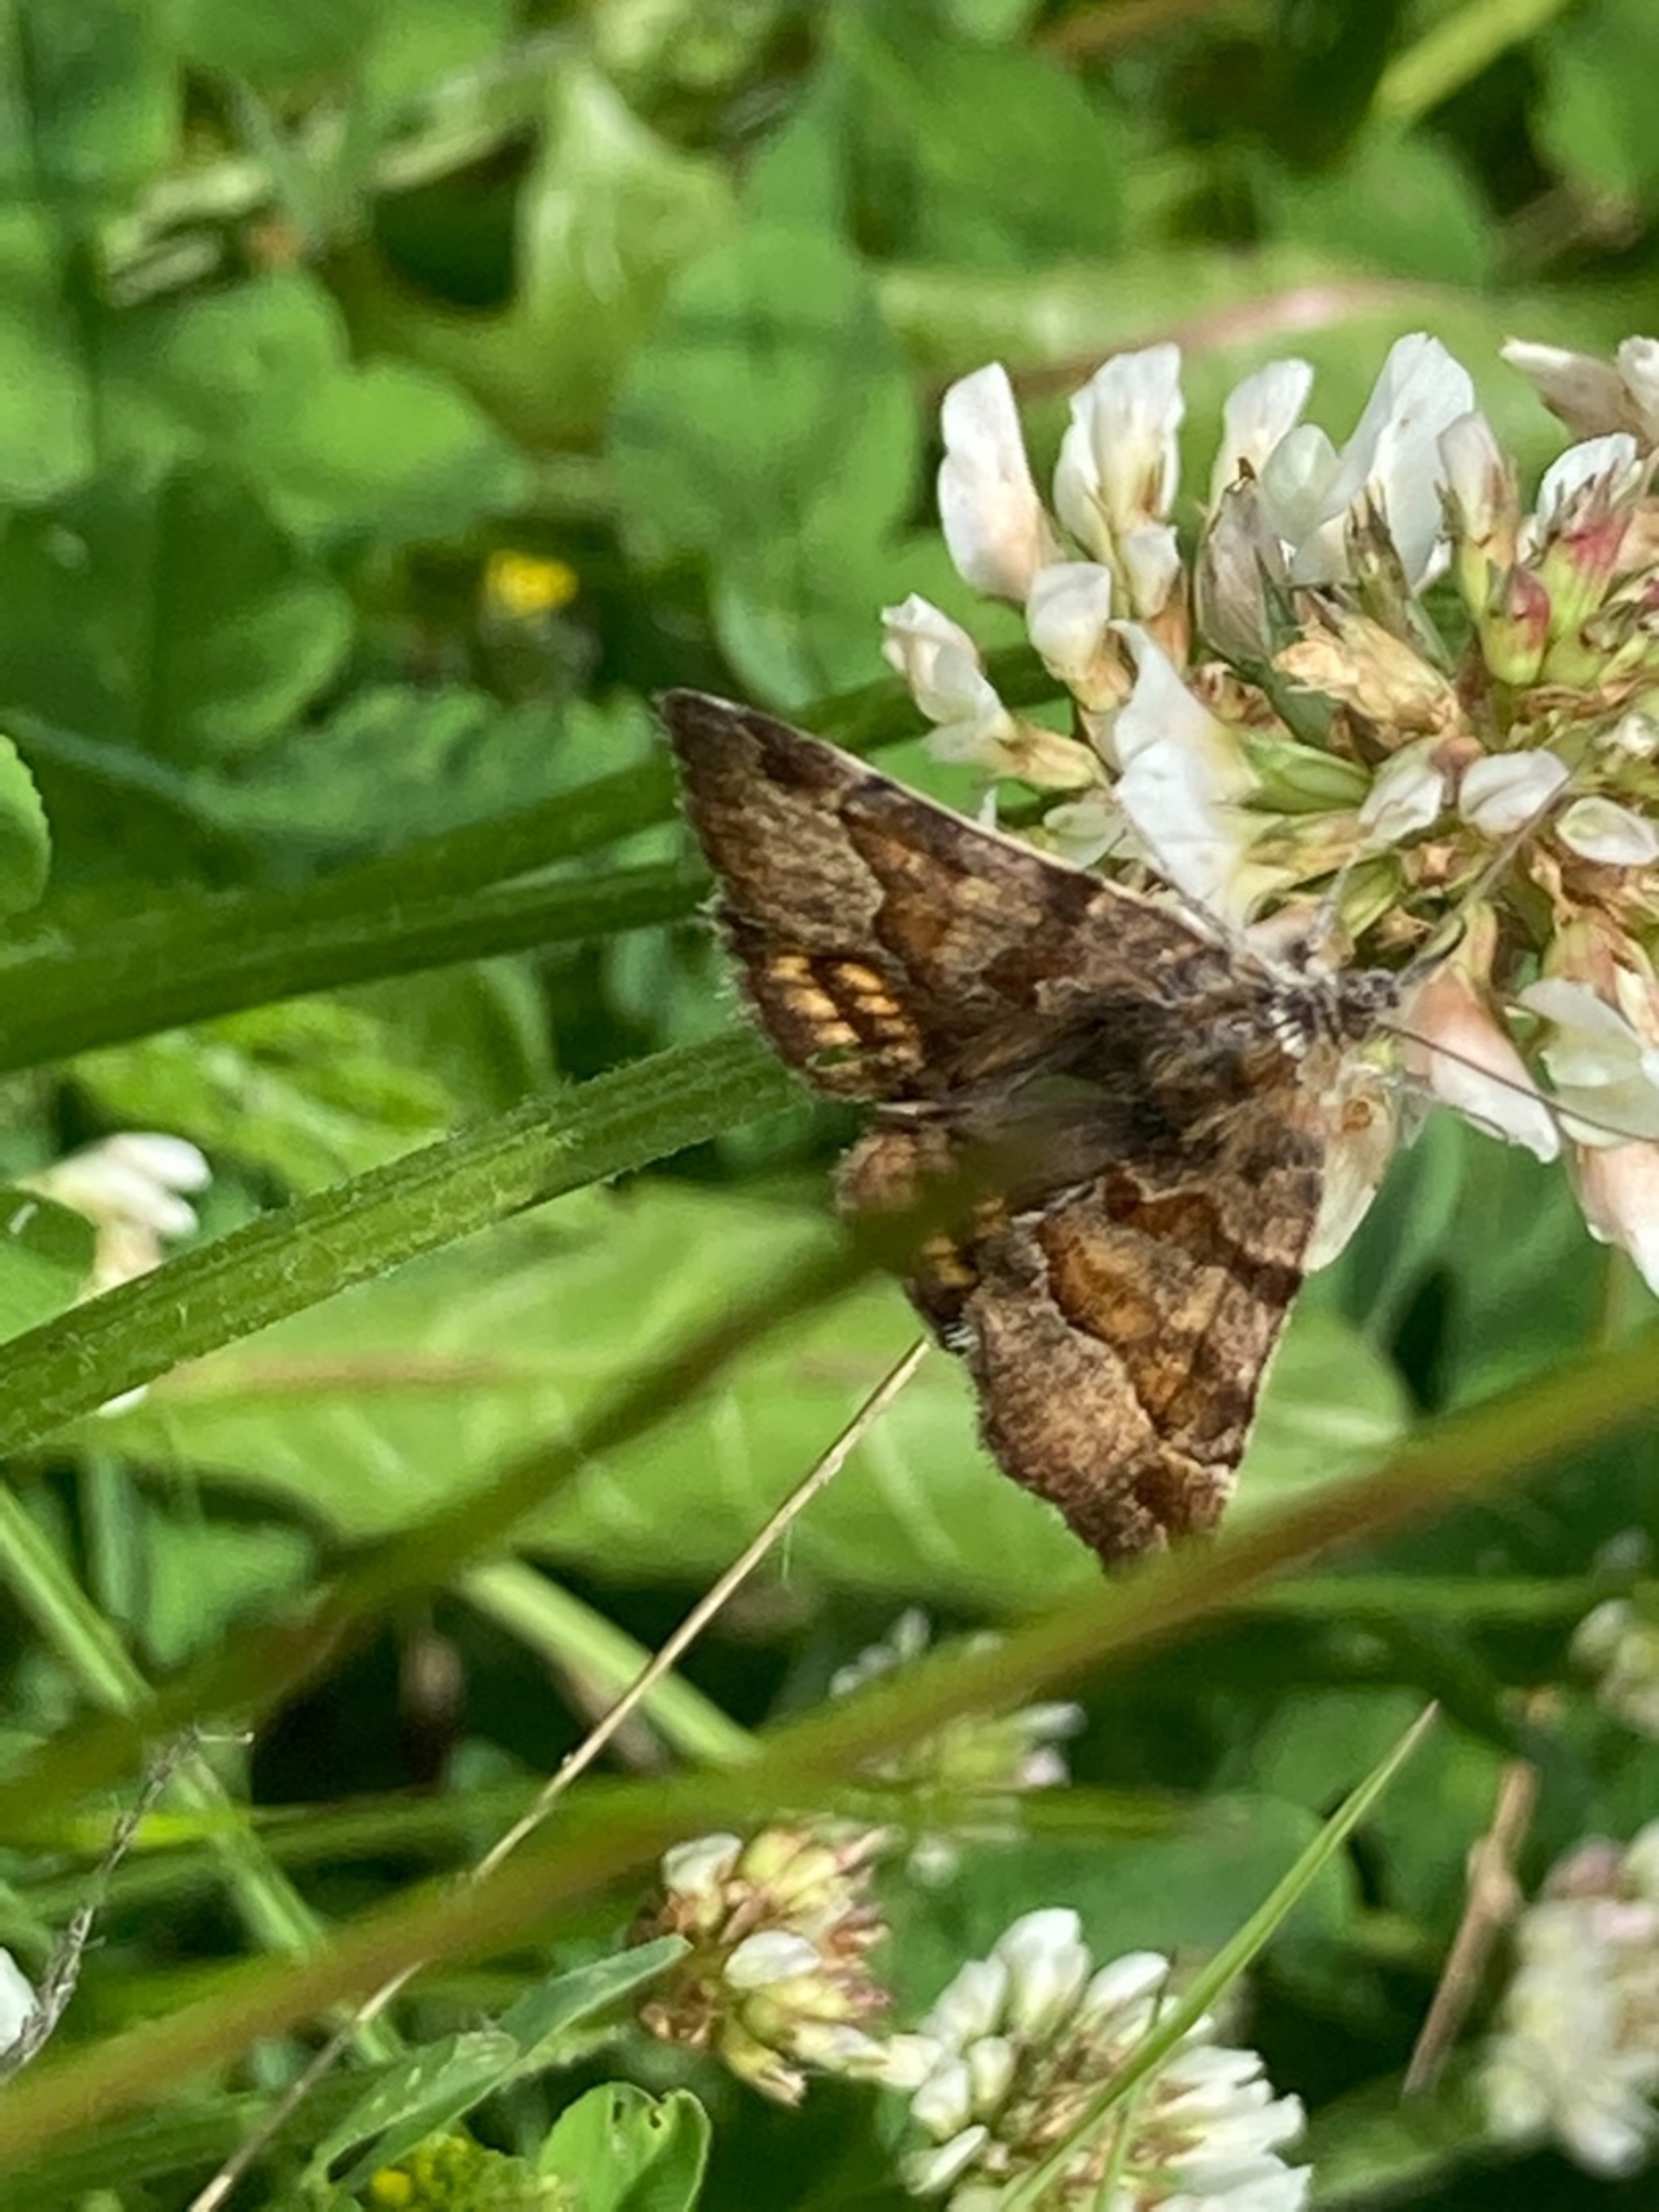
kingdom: Animalia
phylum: Arthropoda
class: Insecta
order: Lepidoptera
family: Erebidae
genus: Euclidia
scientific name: Euclidia glyphica
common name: Brun kløverugle
